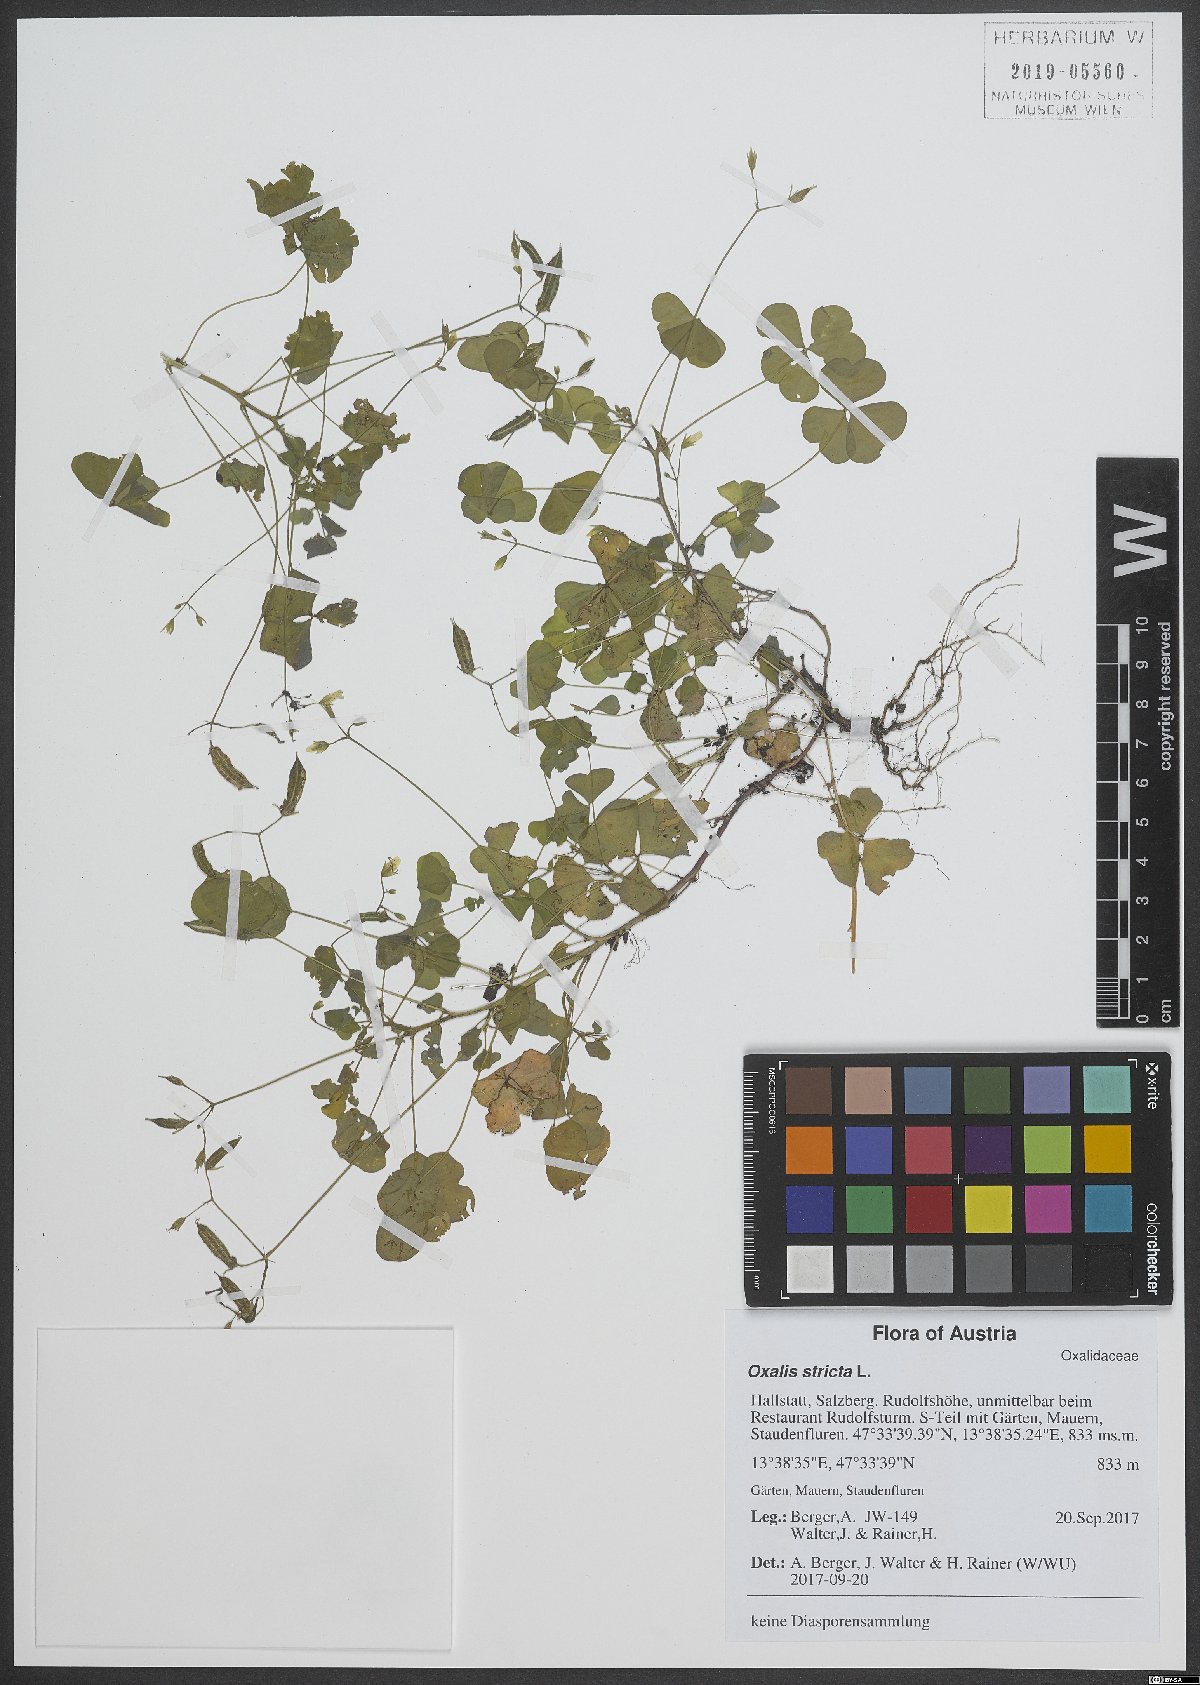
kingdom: Plantae
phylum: Tracheophyta
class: Magnoliopsida
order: Oxalidales
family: Oxalidaceae
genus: Oxalis
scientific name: Oxalis stricta
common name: Upright yellow-sorrel
